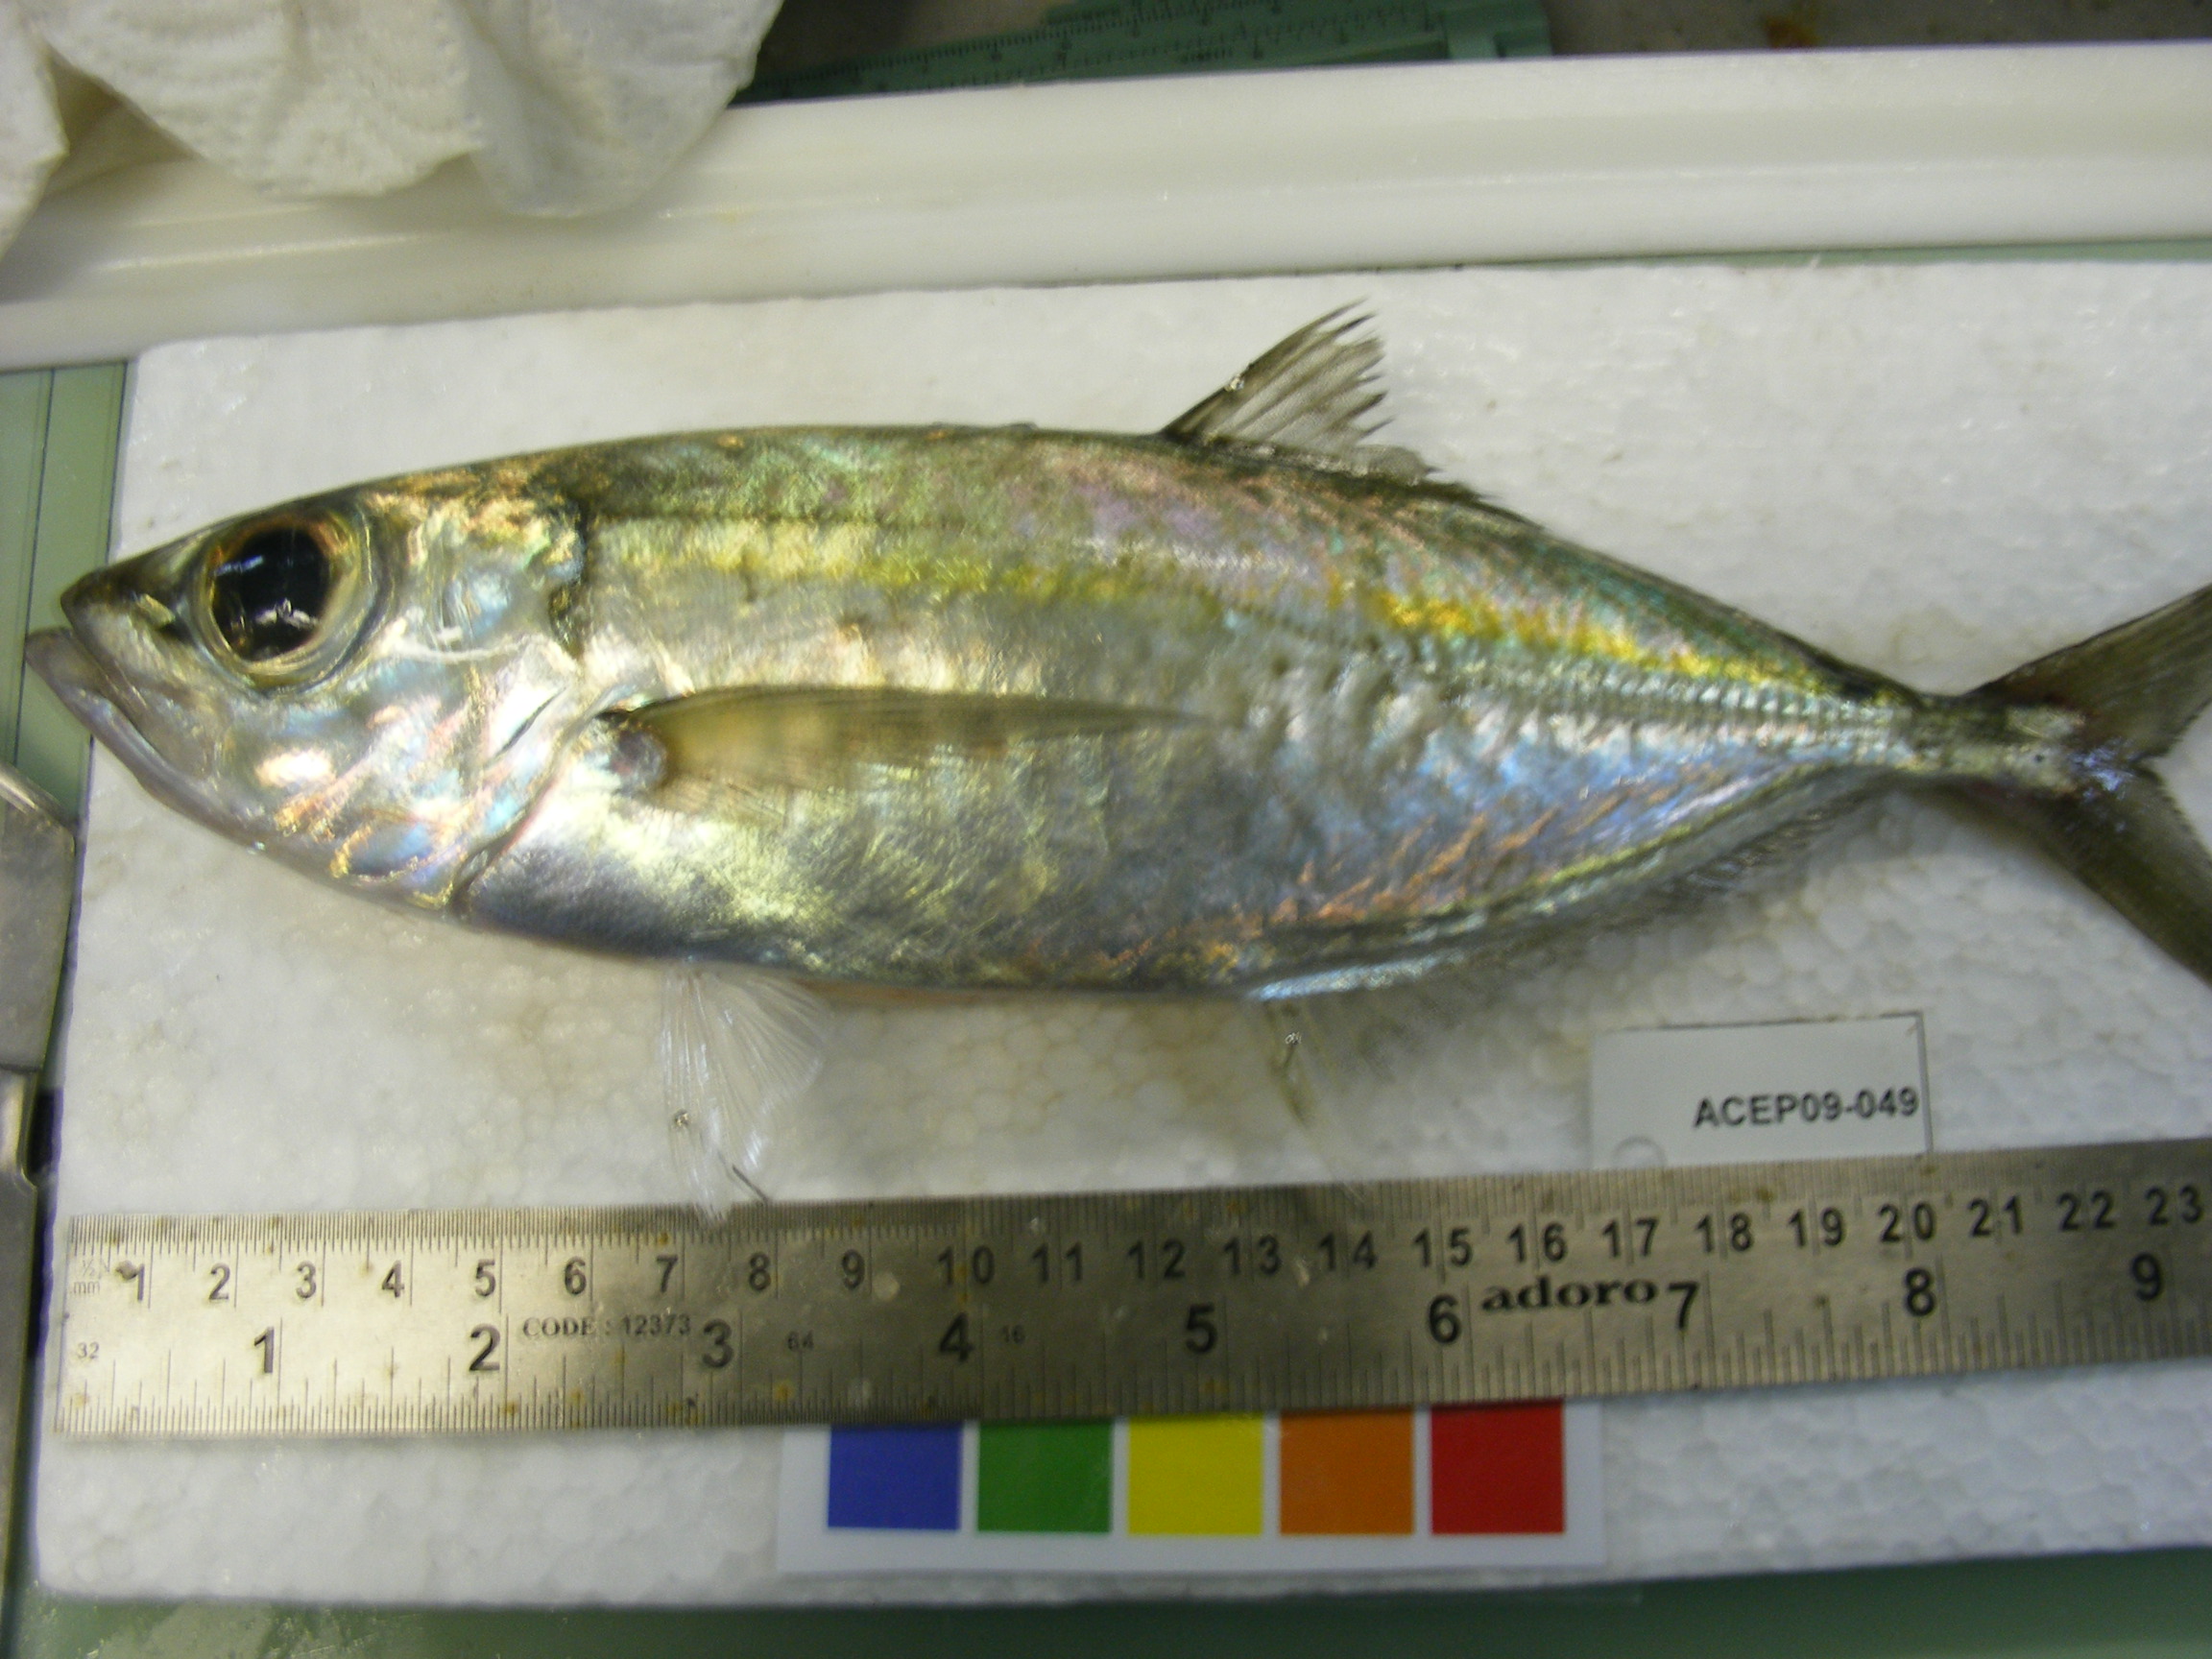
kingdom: Animalia
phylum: Chordata
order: Perciformes
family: Carangidae
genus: Decapterus
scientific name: Decapterus
